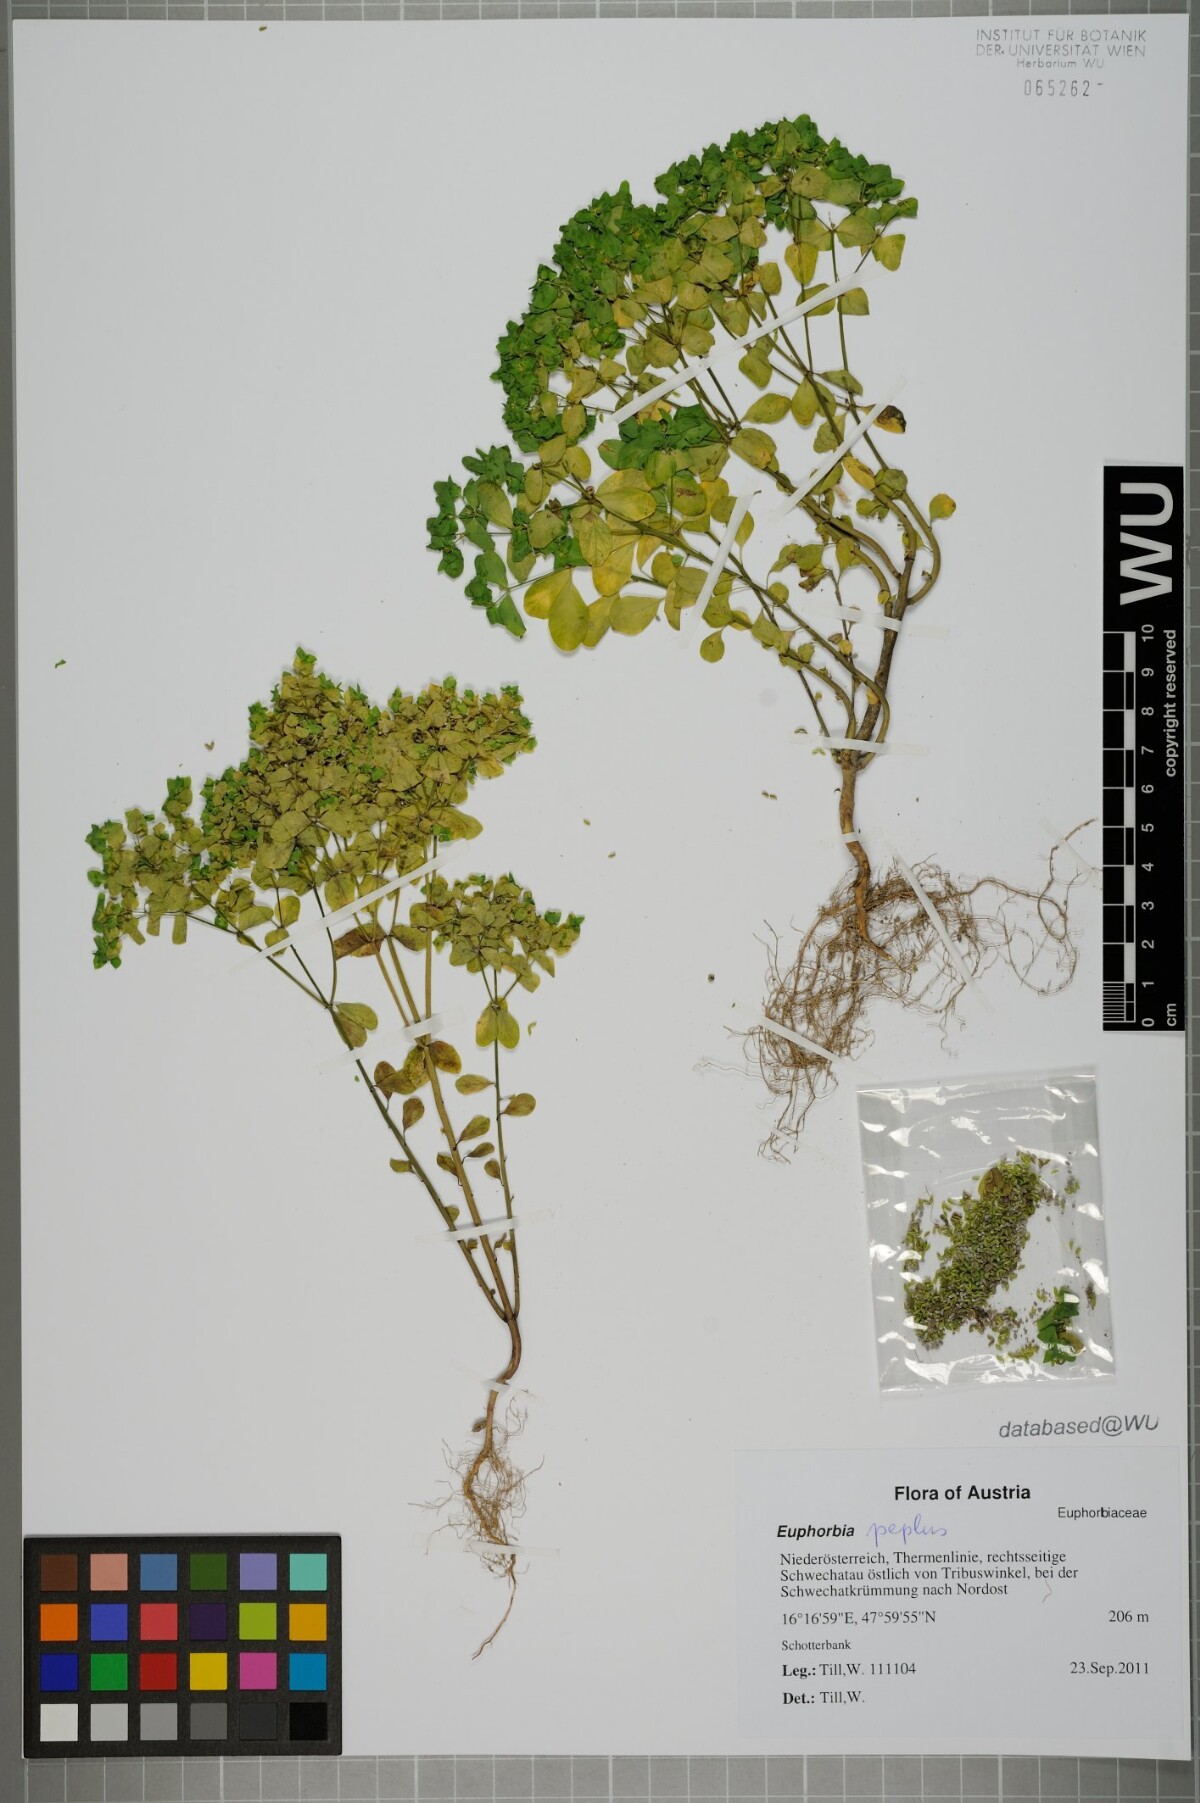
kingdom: Plantae
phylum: Tracheophyta
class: Magnoliopsida
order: Malpighiales
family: Euphorbiaceae
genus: Euphorbia
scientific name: Euphorbia peplus
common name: Petty spurge
